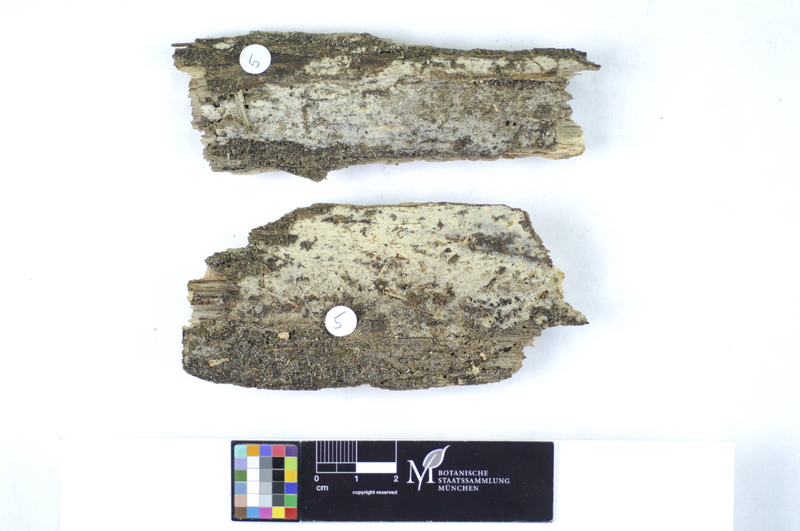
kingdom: Fungi
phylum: Basidiomycota
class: Microbotryomycetes
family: Colacogloeaceae
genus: Colacogloea
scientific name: Colacogloea peniophorae
